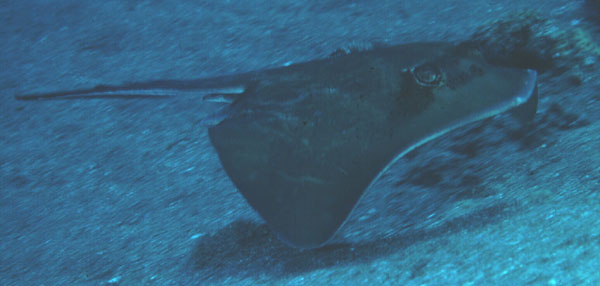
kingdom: Animalia
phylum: Chordata
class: Elasmobranchii
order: Myliobatiformes
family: Dasyatidae
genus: Neotrygon
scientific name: Neotrygon kuhlii
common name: Bluespotted stingray
